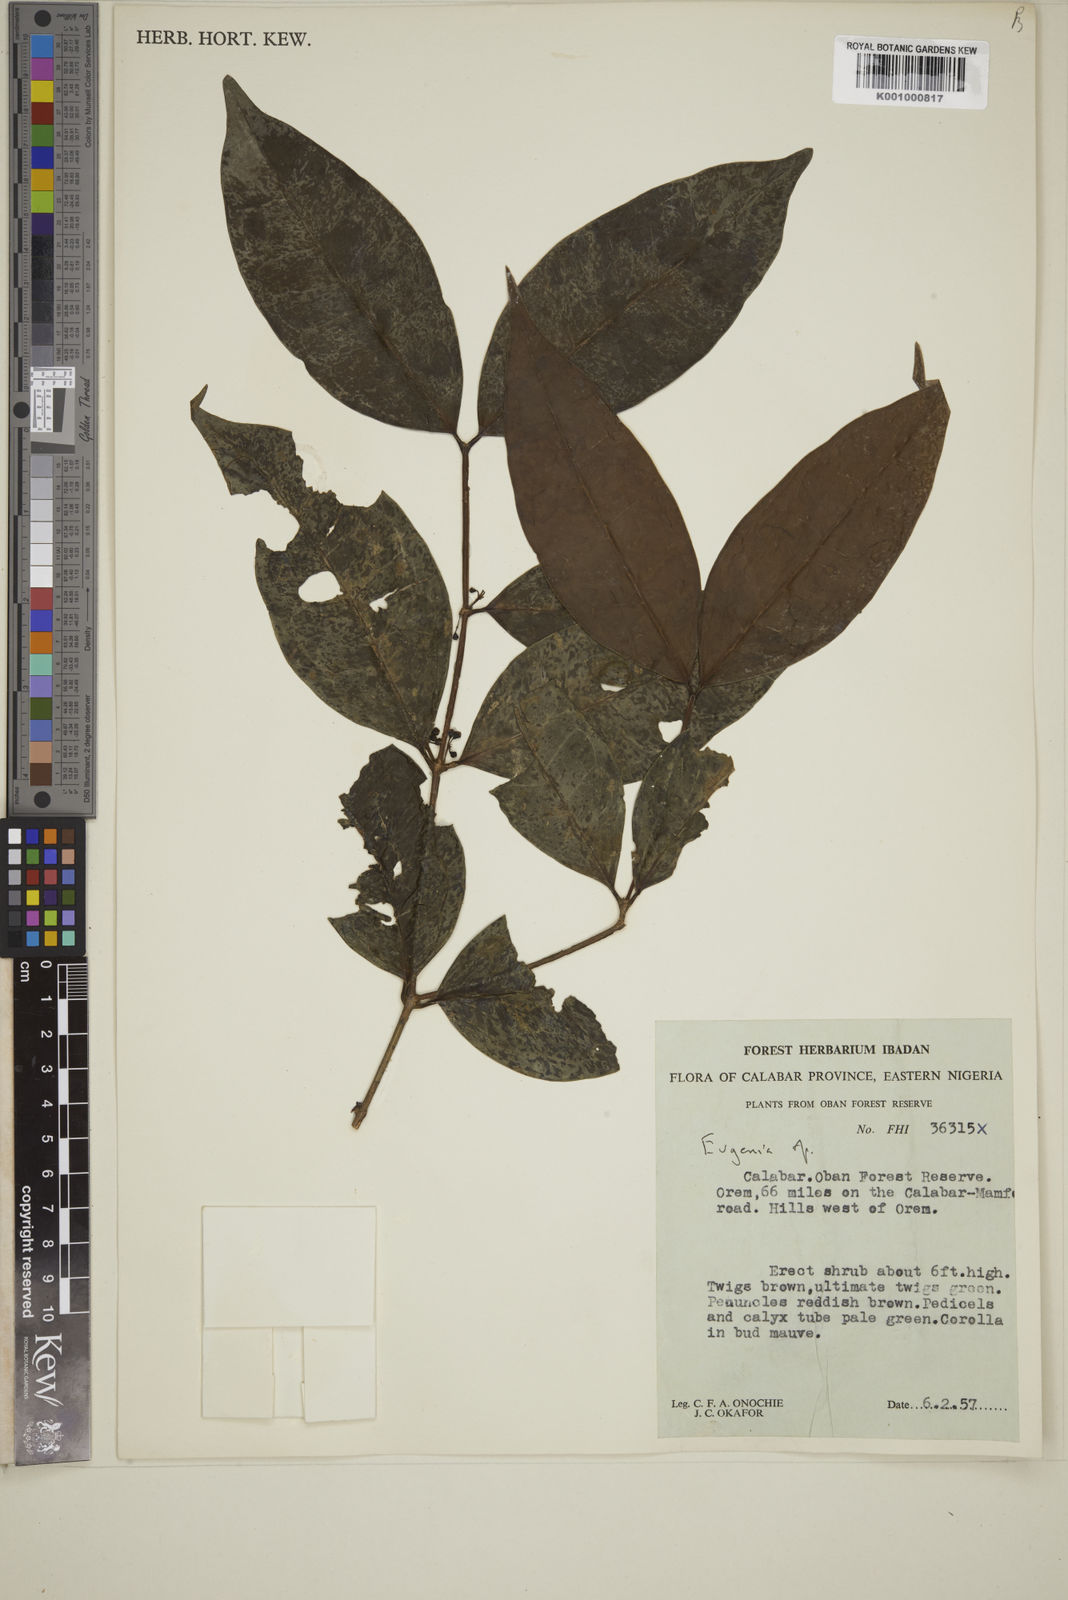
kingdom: Plantae
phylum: Tracheophyta
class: Magnoliopsida
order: Myrtales
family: Myrtaceae
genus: Eugenia
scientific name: Eugenia
